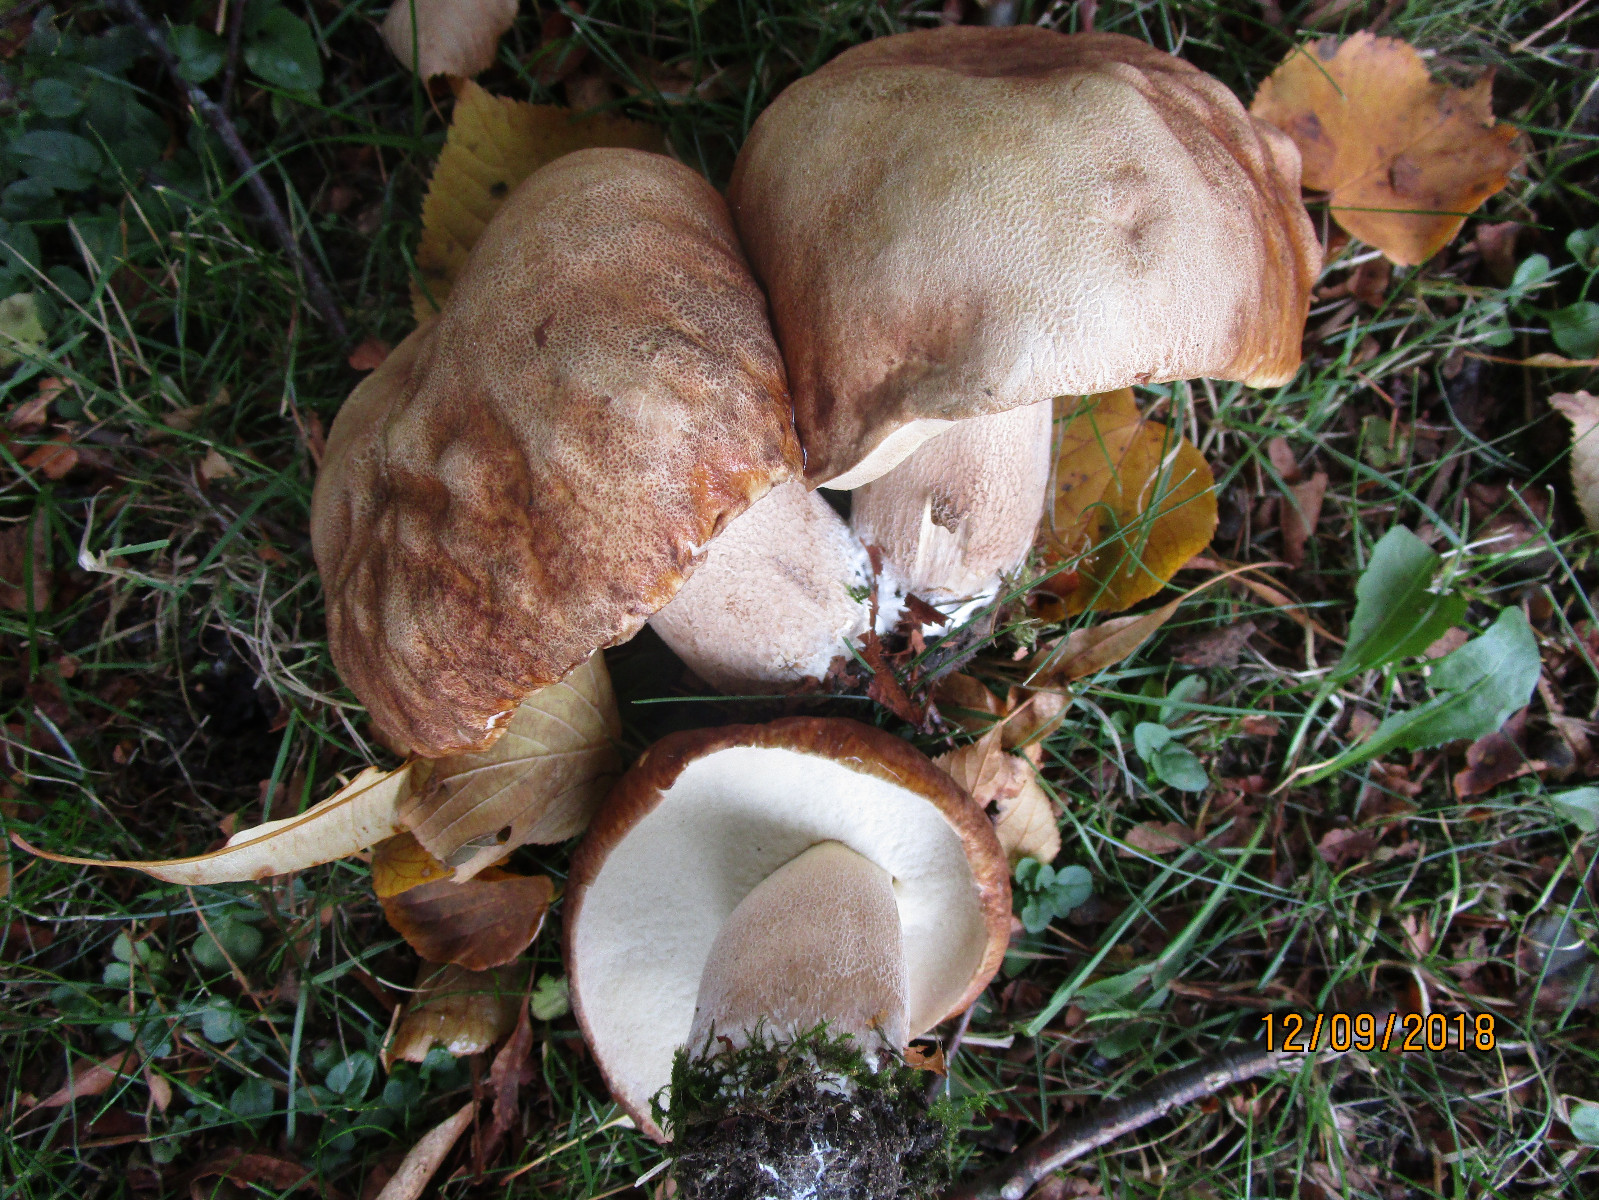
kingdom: Fungi
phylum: Basidiomycota
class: Agaricomycetes
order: Boletales
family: Boletaceae
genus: Boletus
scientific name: Boletus reticulatus
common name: sommer-rørhat
